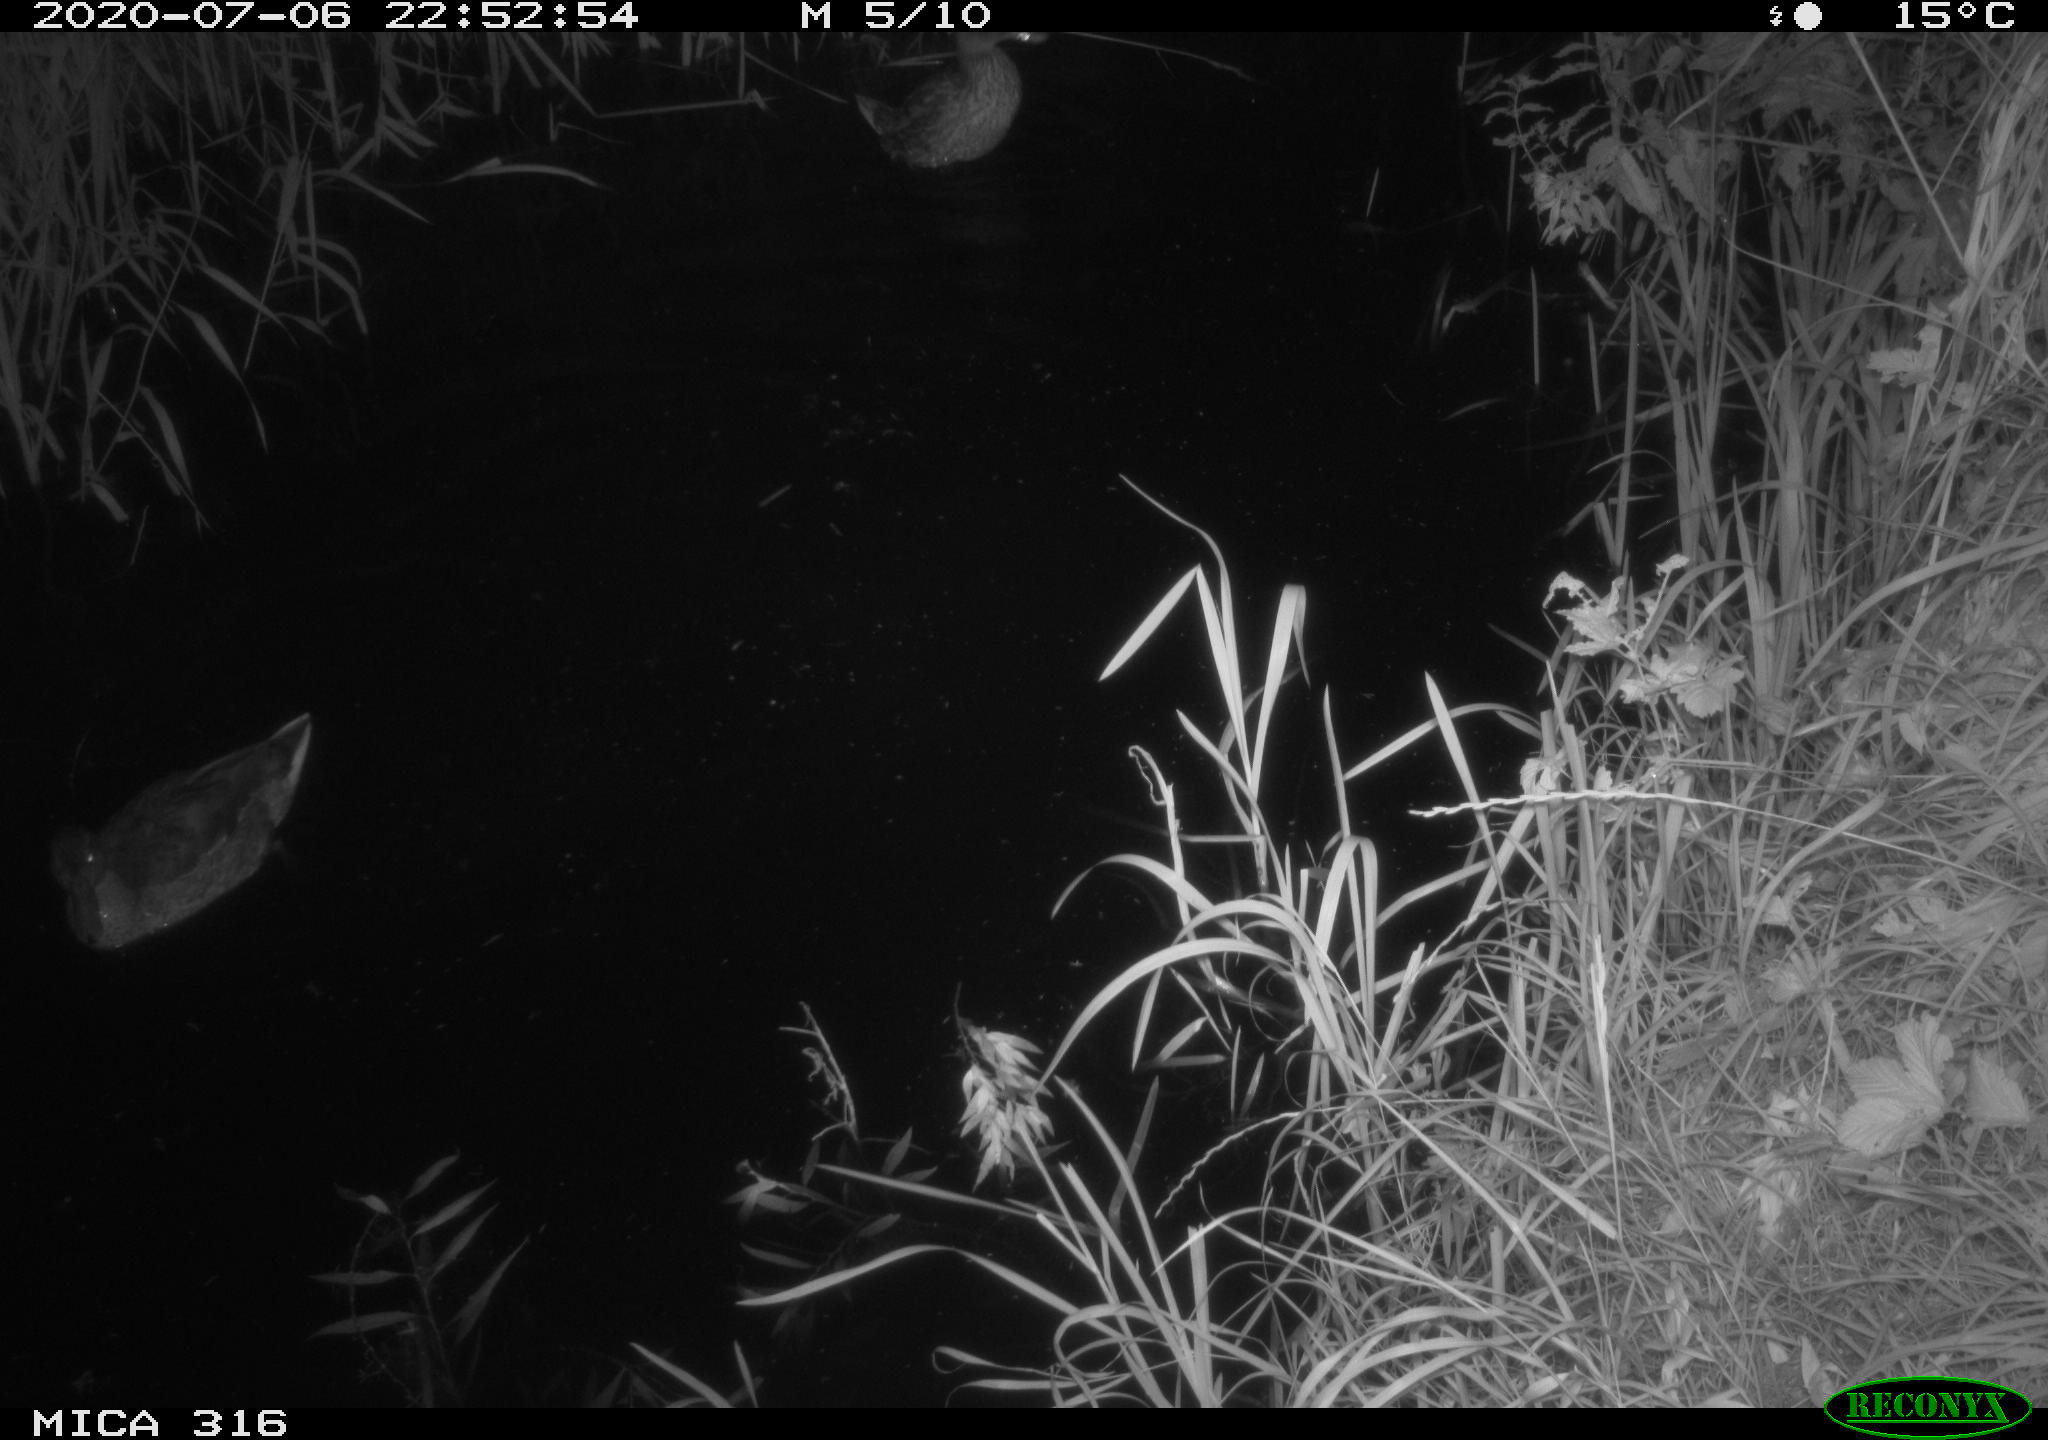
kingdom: Animalia
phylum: Chordata
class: Aves
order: Anseriformes
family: Anatidae
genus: Anas
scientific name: Anas platyrhynchos
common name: Mallard
